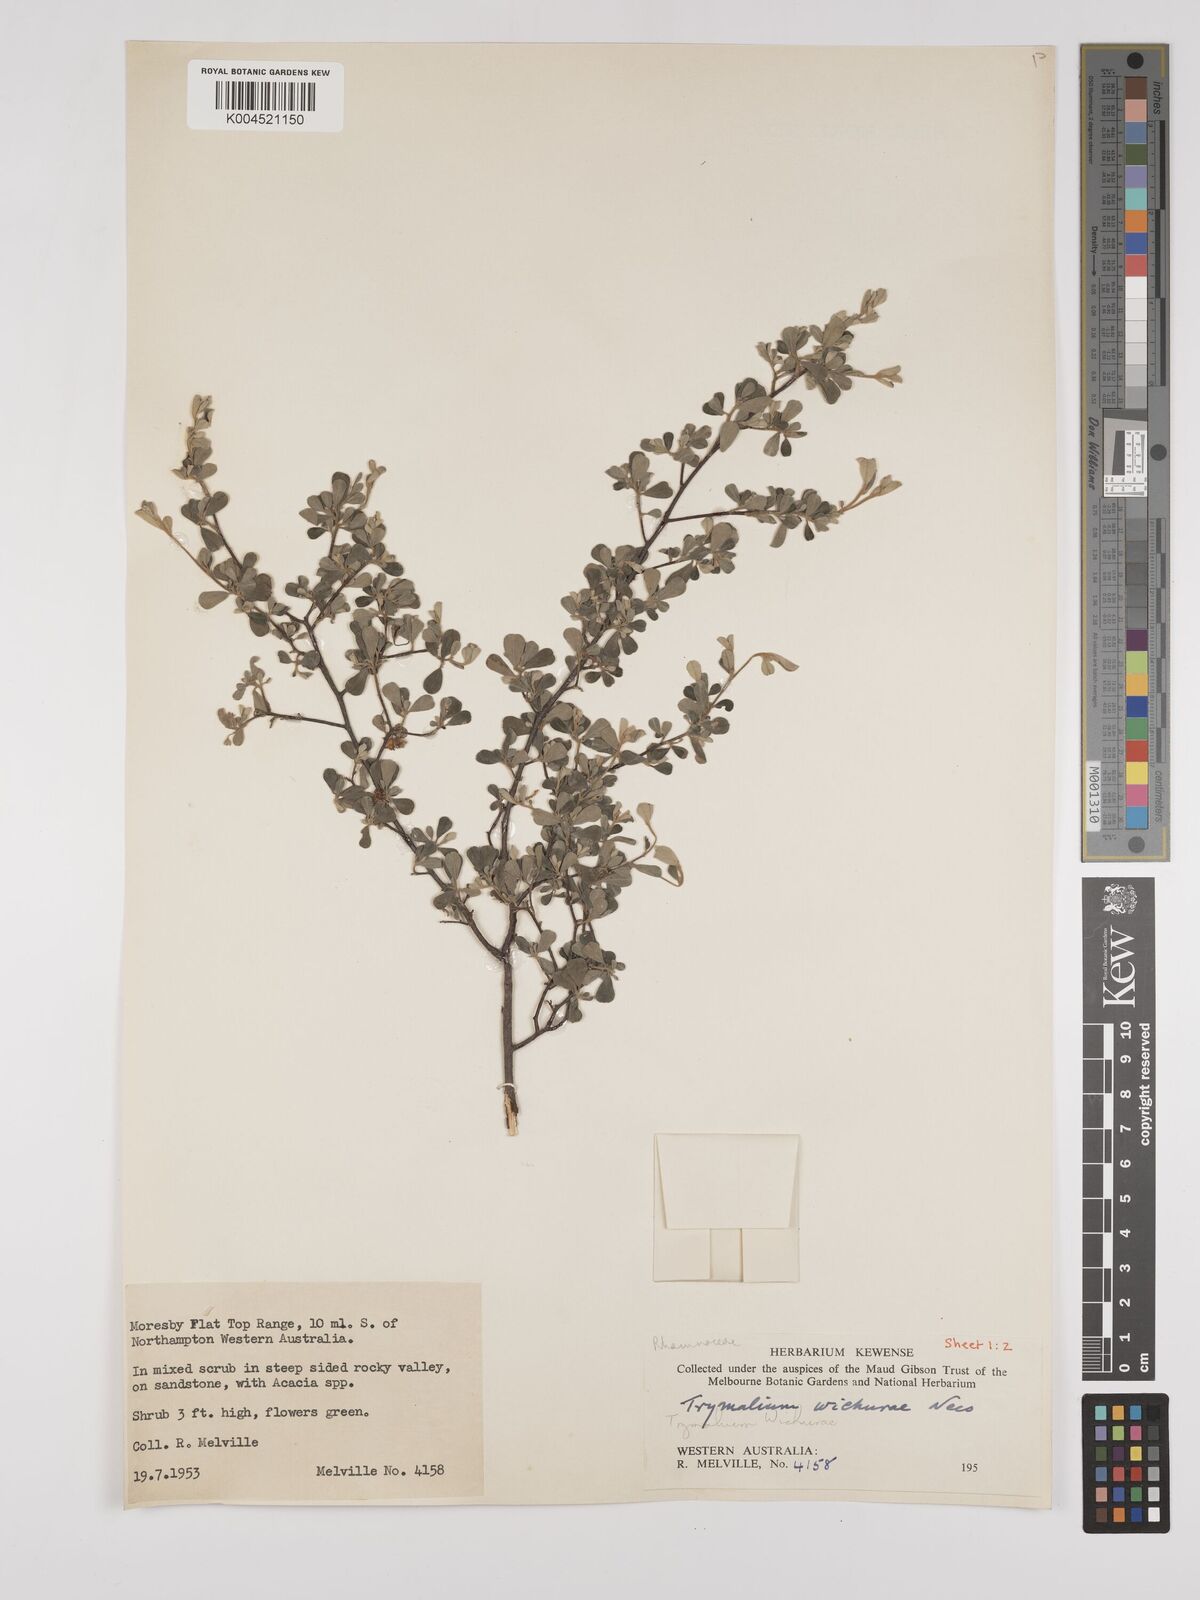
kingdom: Plantae
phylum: Tracheophyta
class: Magnoliopsida
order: Rosales
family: Rhamnaceae
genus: Polianthion
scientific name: Polianthion wichurae
